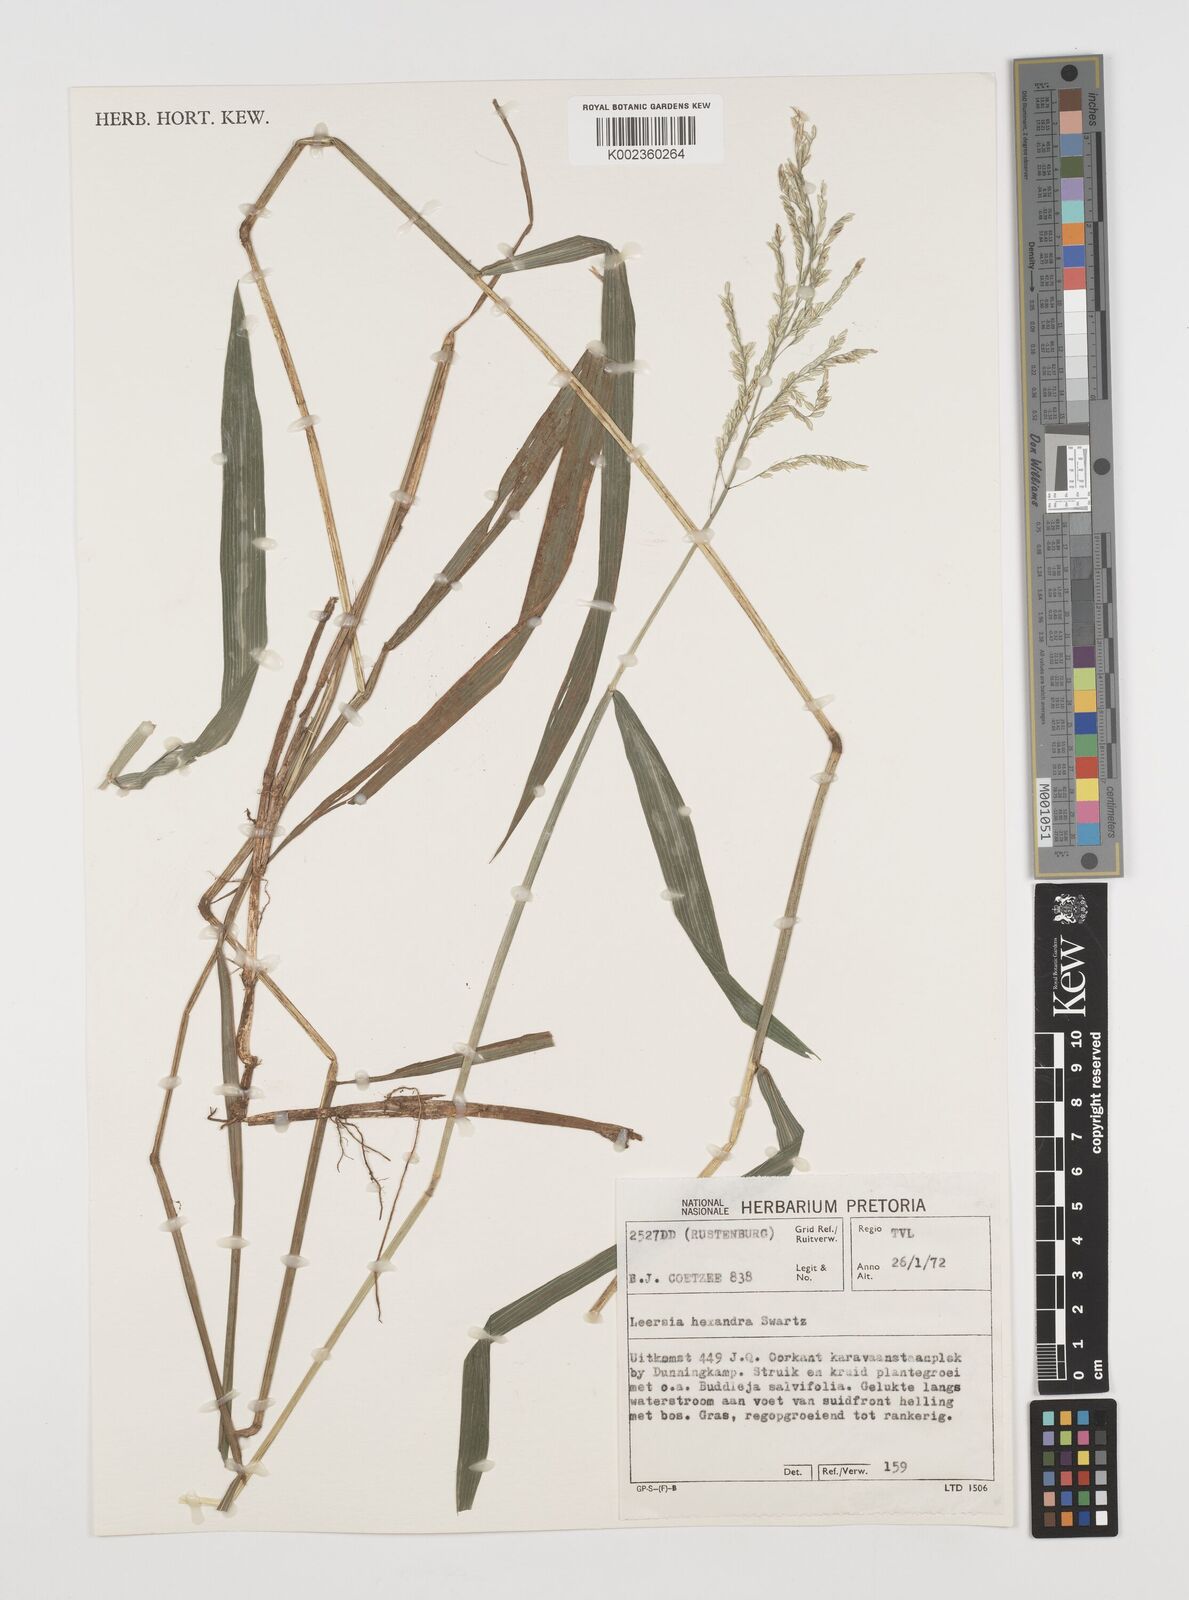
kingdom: Plantae
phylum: Tracheophyta
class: Liliopsida
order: Poales
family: Poaceae
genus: Leersia
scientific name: Leersia hexandra
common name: Southern cut grass
